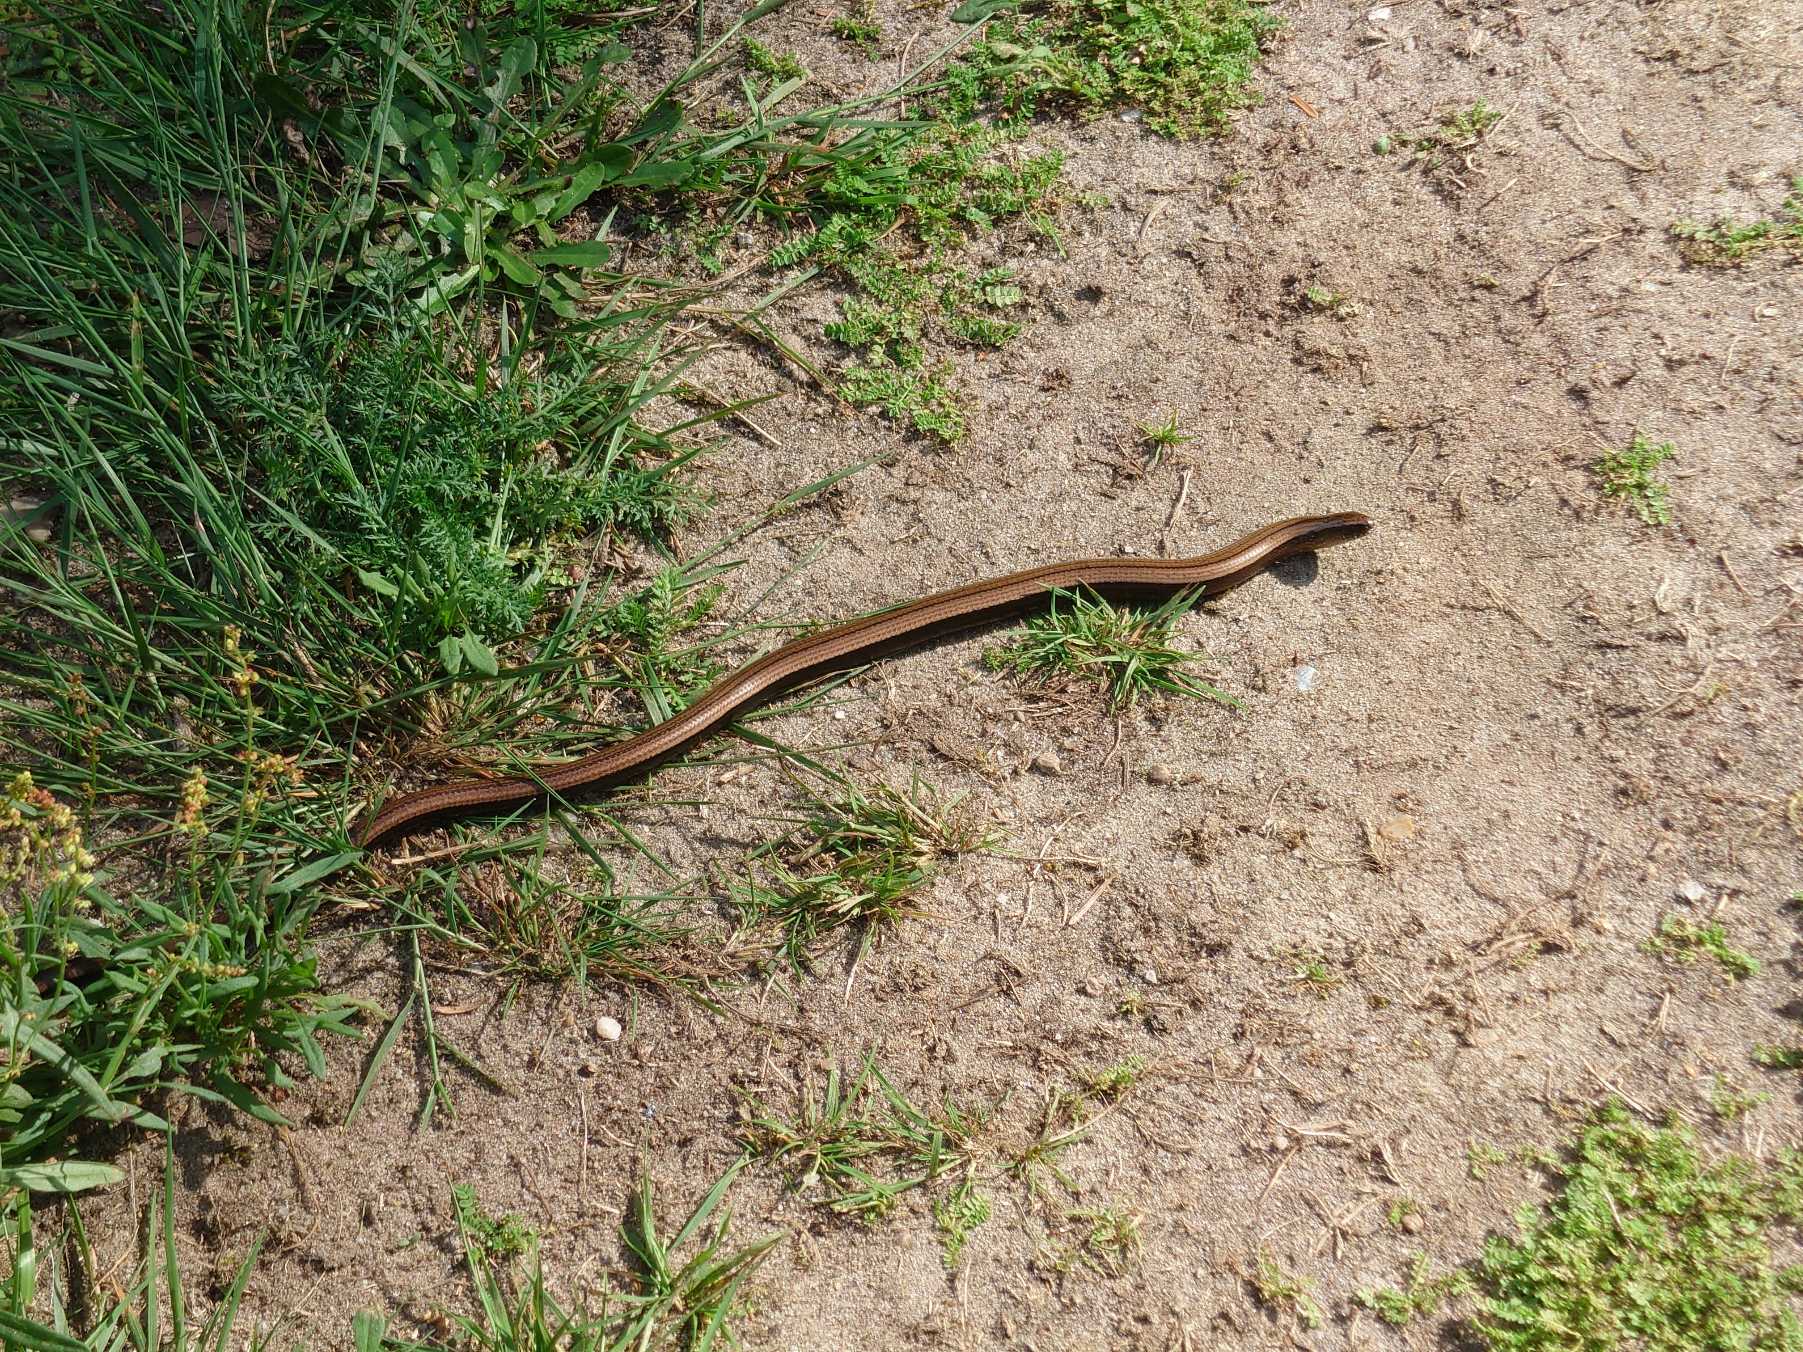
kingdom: Animalia
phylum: Chordata
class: Squamata
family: Anguidae
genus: Anguis
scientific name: Anguis fragilis
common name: Stålorm
